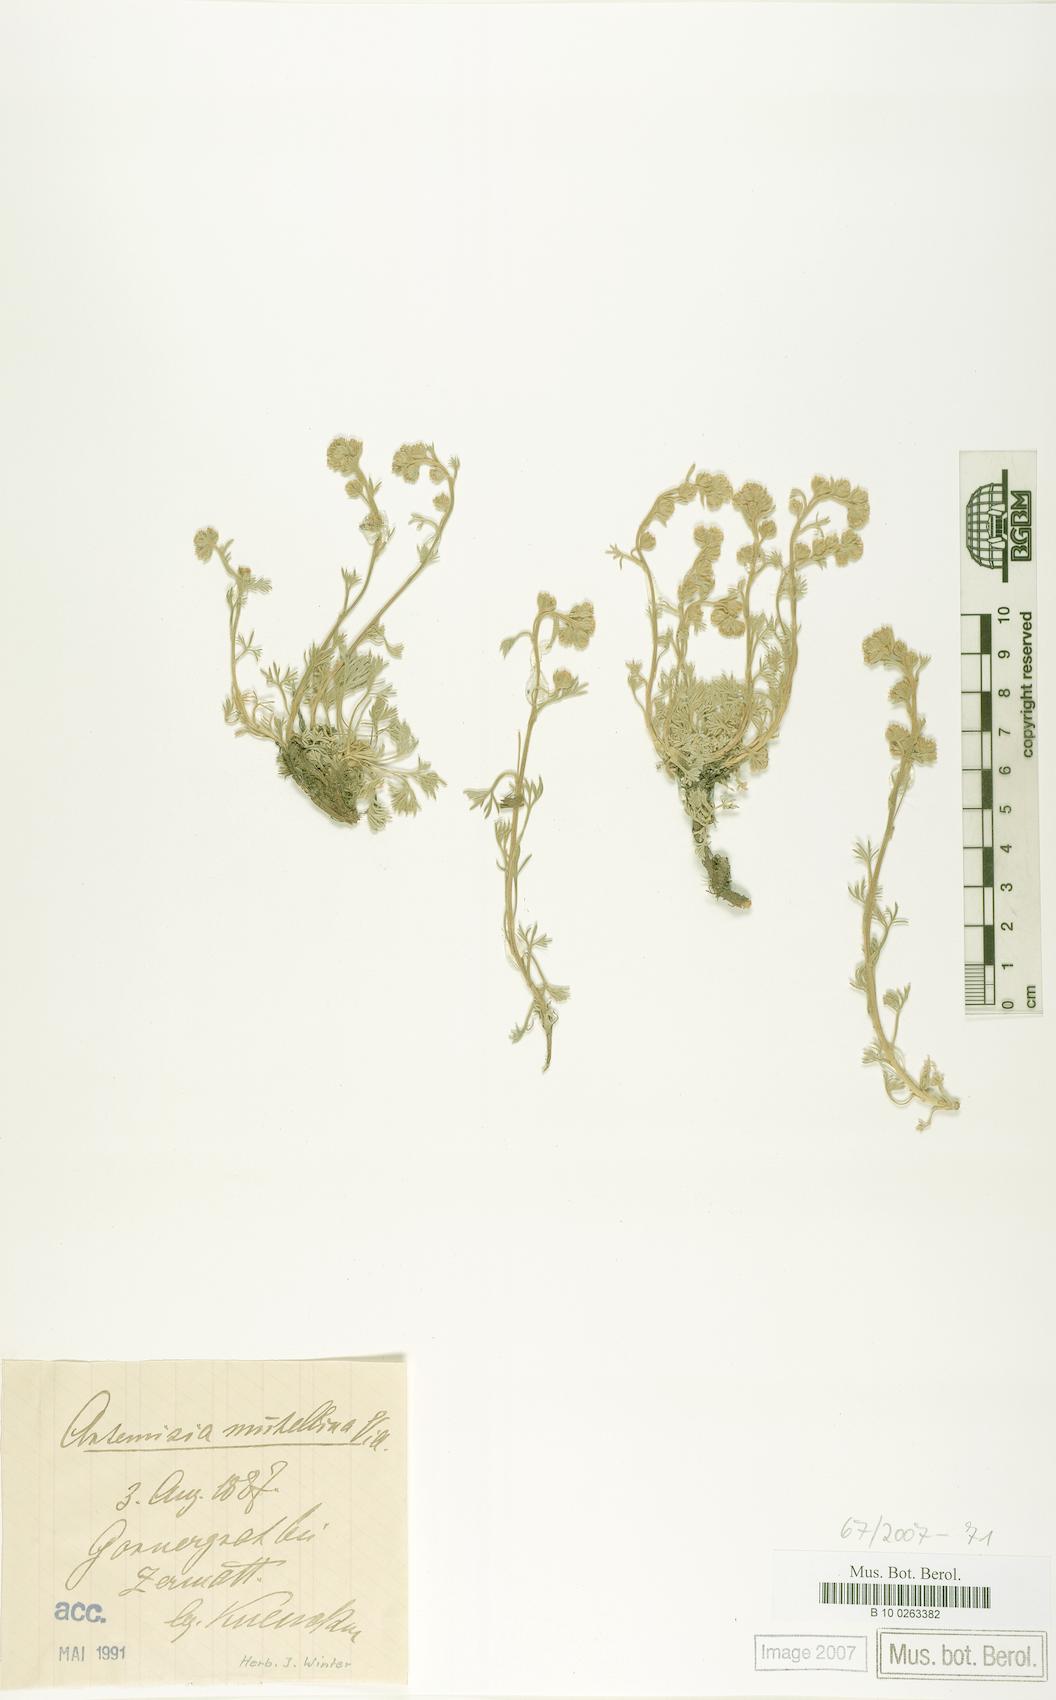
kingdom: Plantae
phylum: Tracheophyta
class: Magnoliopsida
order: Asterales
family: Asteraceae
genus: Artemisia
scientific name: Artemisia mutellina
